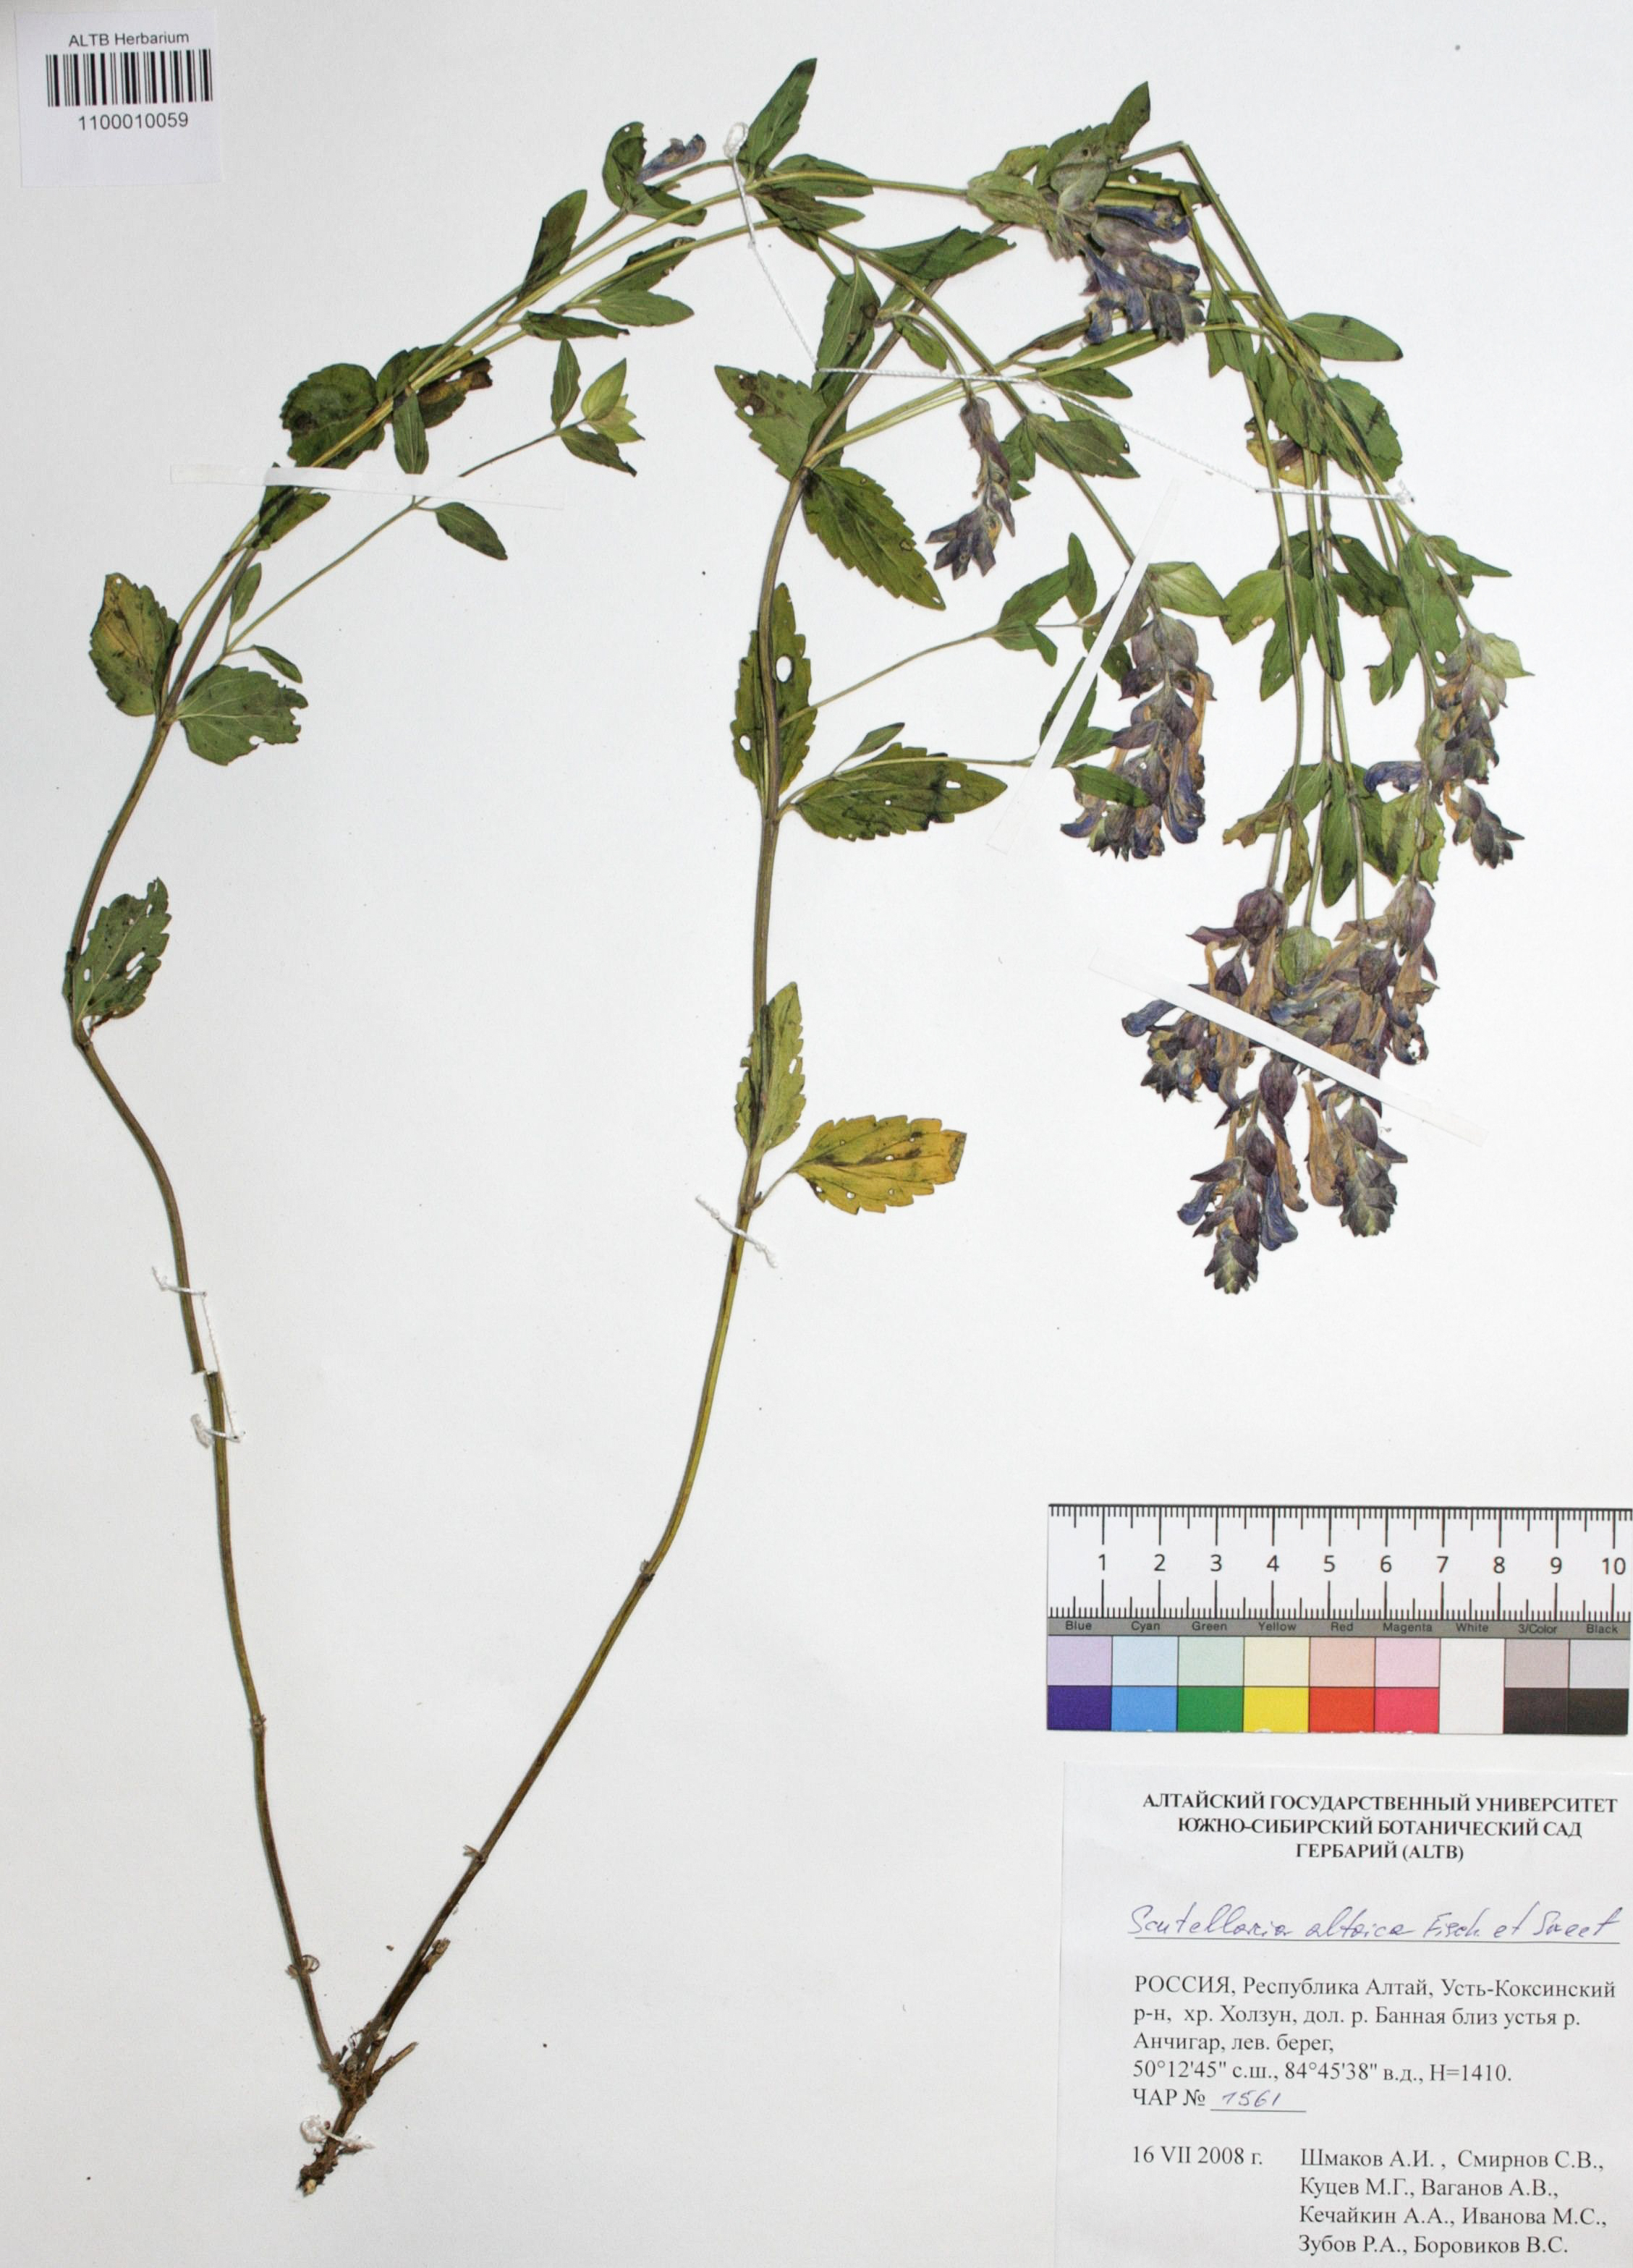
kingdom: Plantae
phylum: Tracheophyta
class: Magnoliopsida
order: Lamiales
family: Lamiaceae
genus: Scutellaria
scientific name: Scutellaria altaica
